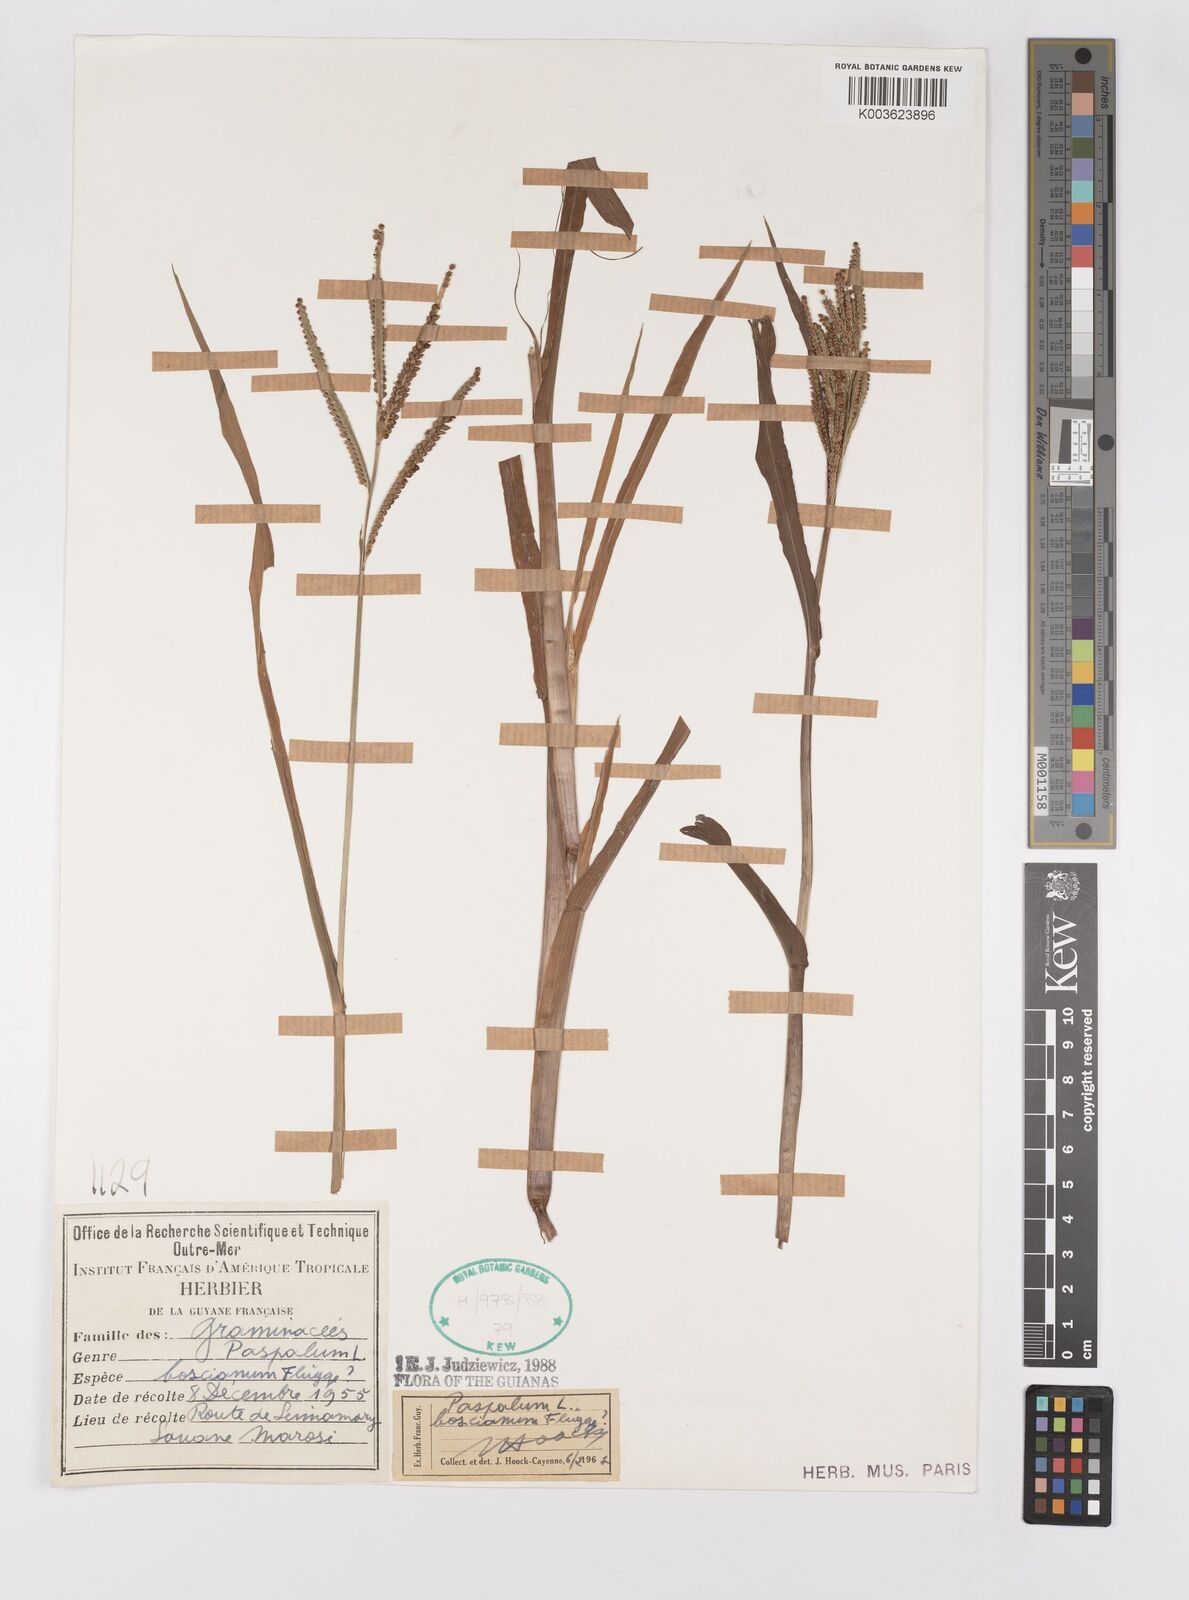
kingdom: Plantae
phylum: Tracheophyta
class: Liliopsida
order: Poales
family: Poaceae
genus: Paspalum
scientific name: Paspalum scrobiculatum
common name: Kodo millet
